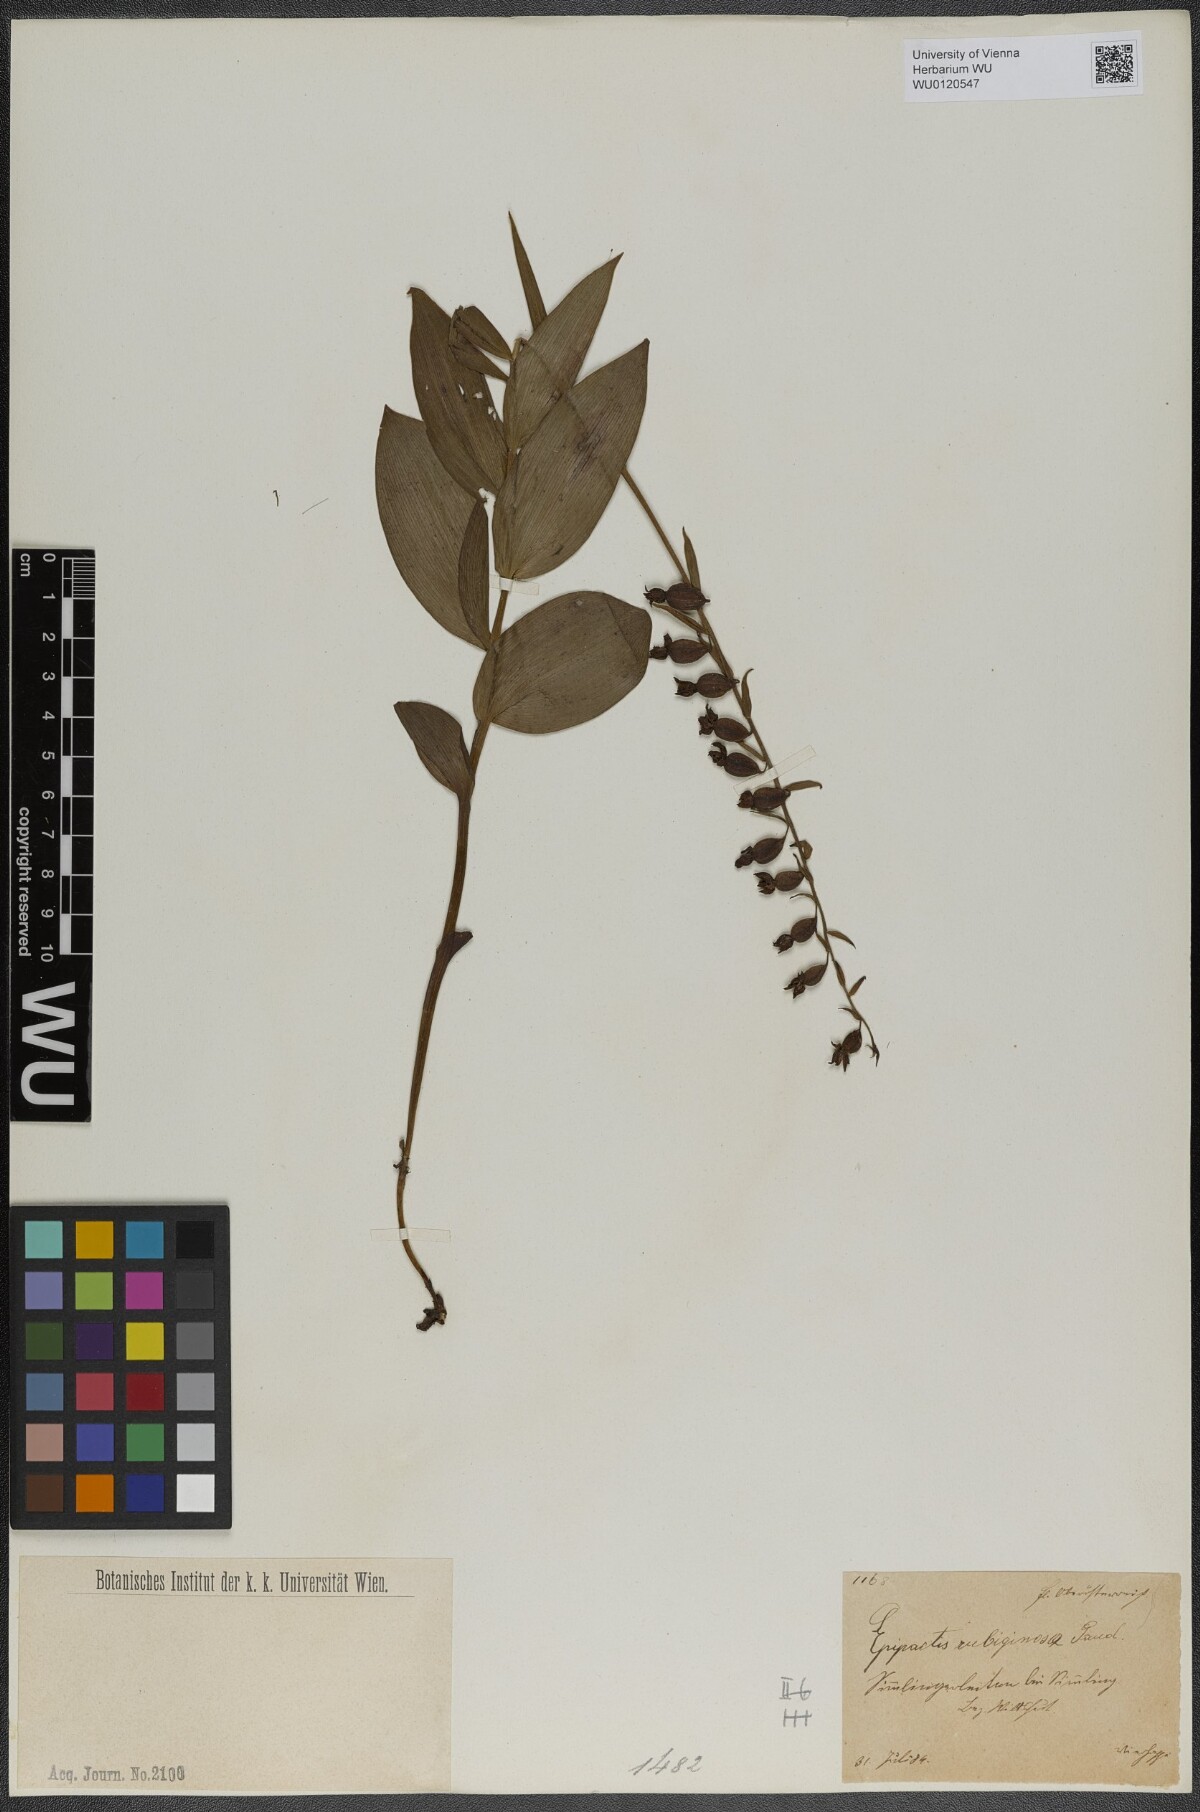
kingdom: Plantae
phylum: Tracheophyta
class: Liliopsida
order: Asparagales
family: Orchidaceae
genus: Epipactis
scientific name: Epipactis atrorubens
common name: Dark-red helleborine
